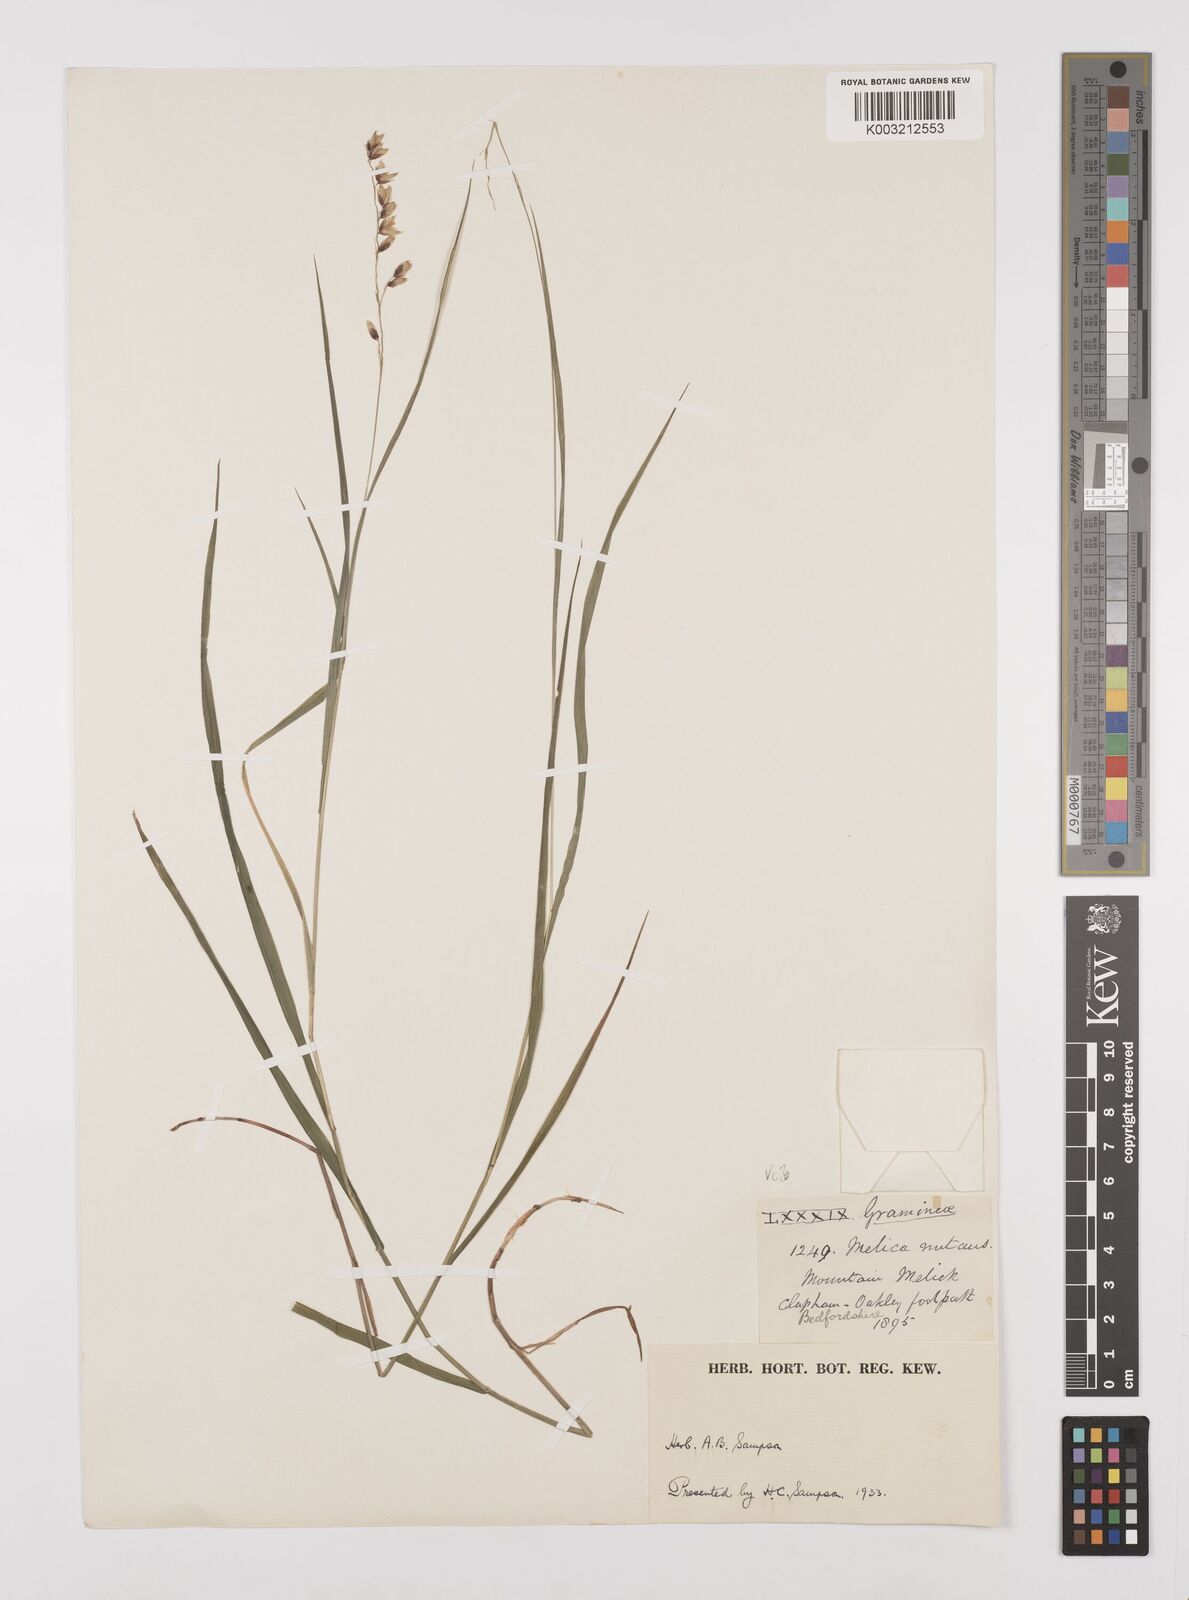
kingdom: Plantae
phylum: Tracheophyta
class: Liliopsida
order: Poales
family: Poaceae
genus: Melica
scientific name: Melica
